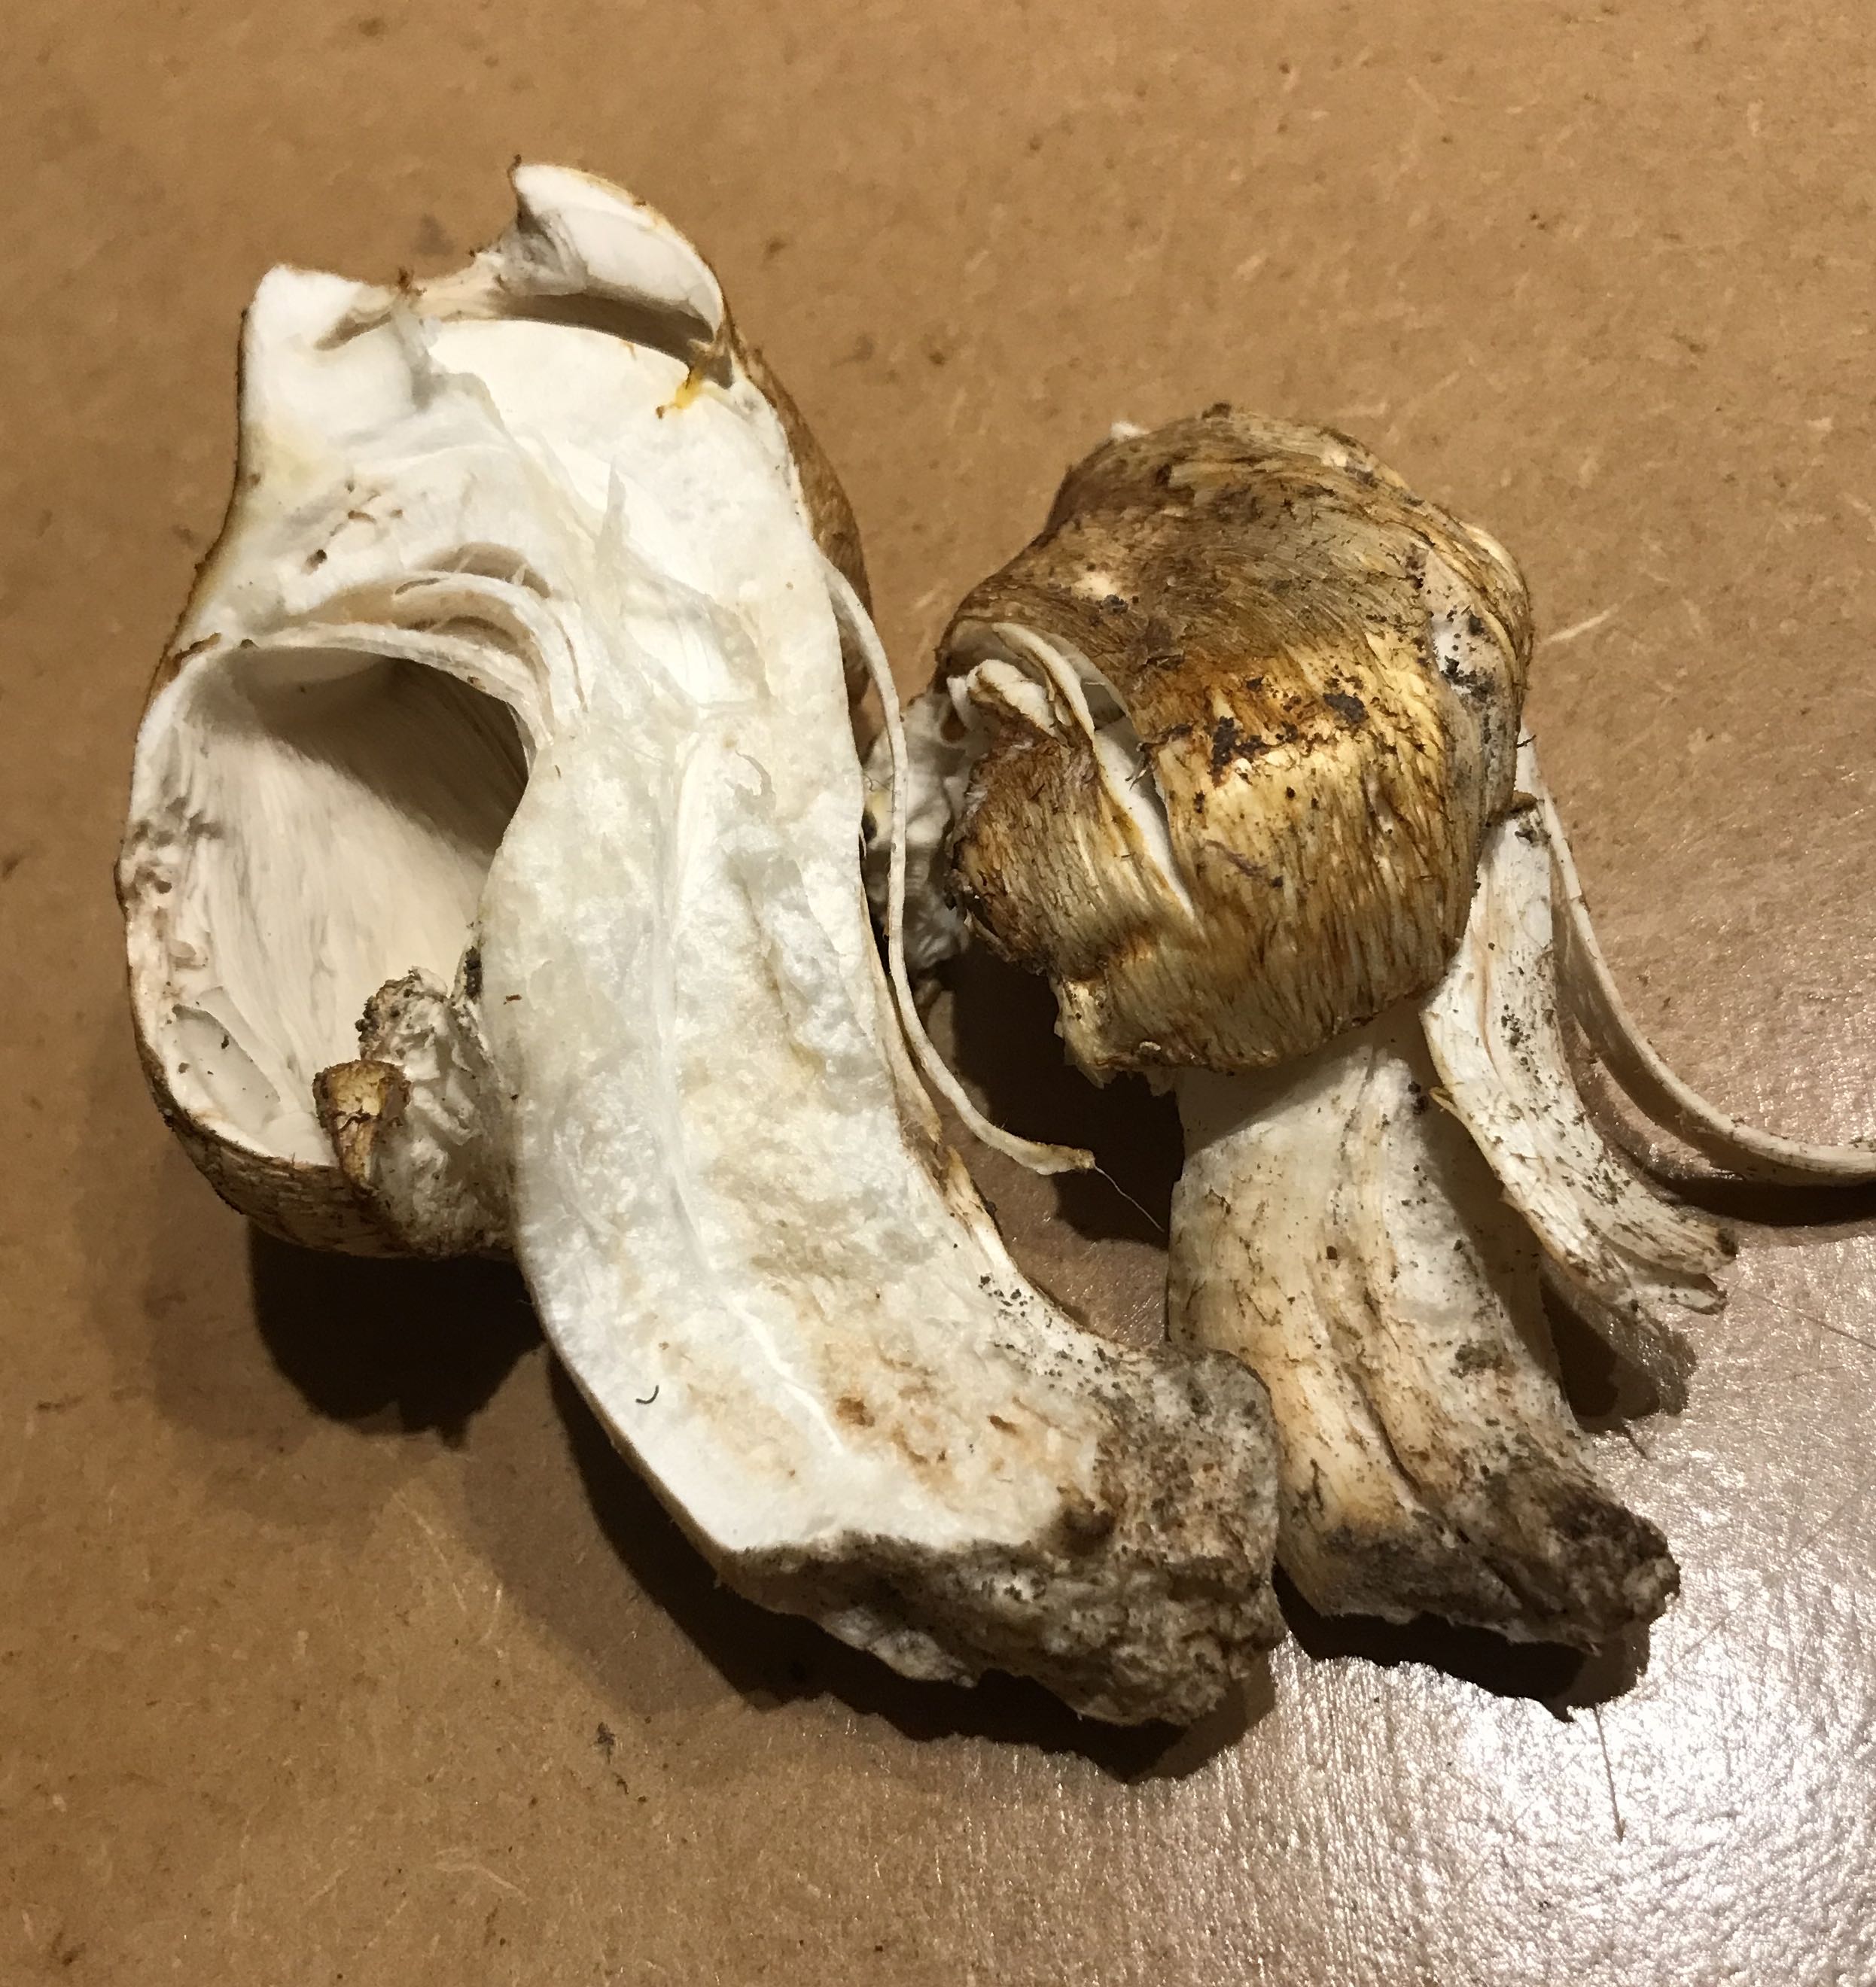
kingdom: Fungi
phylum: Basidiomycota
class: Agaricomycetes
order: Agaricales
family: Agaricaceae
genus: Agaricus
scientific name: Agaricus augustus
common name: prægtig champignon
